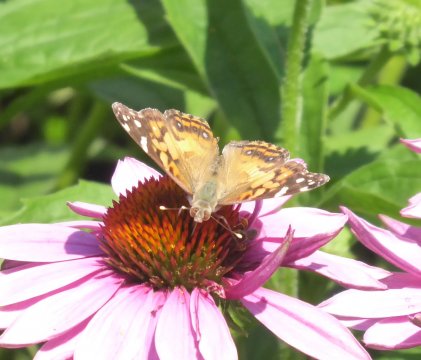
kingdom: Animalia
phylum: Arthropoda
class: Insecta
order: Lepidoptera
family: Nymphalidae
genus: Vanessa
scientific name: Vanessa virginiensis
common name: American Lady
